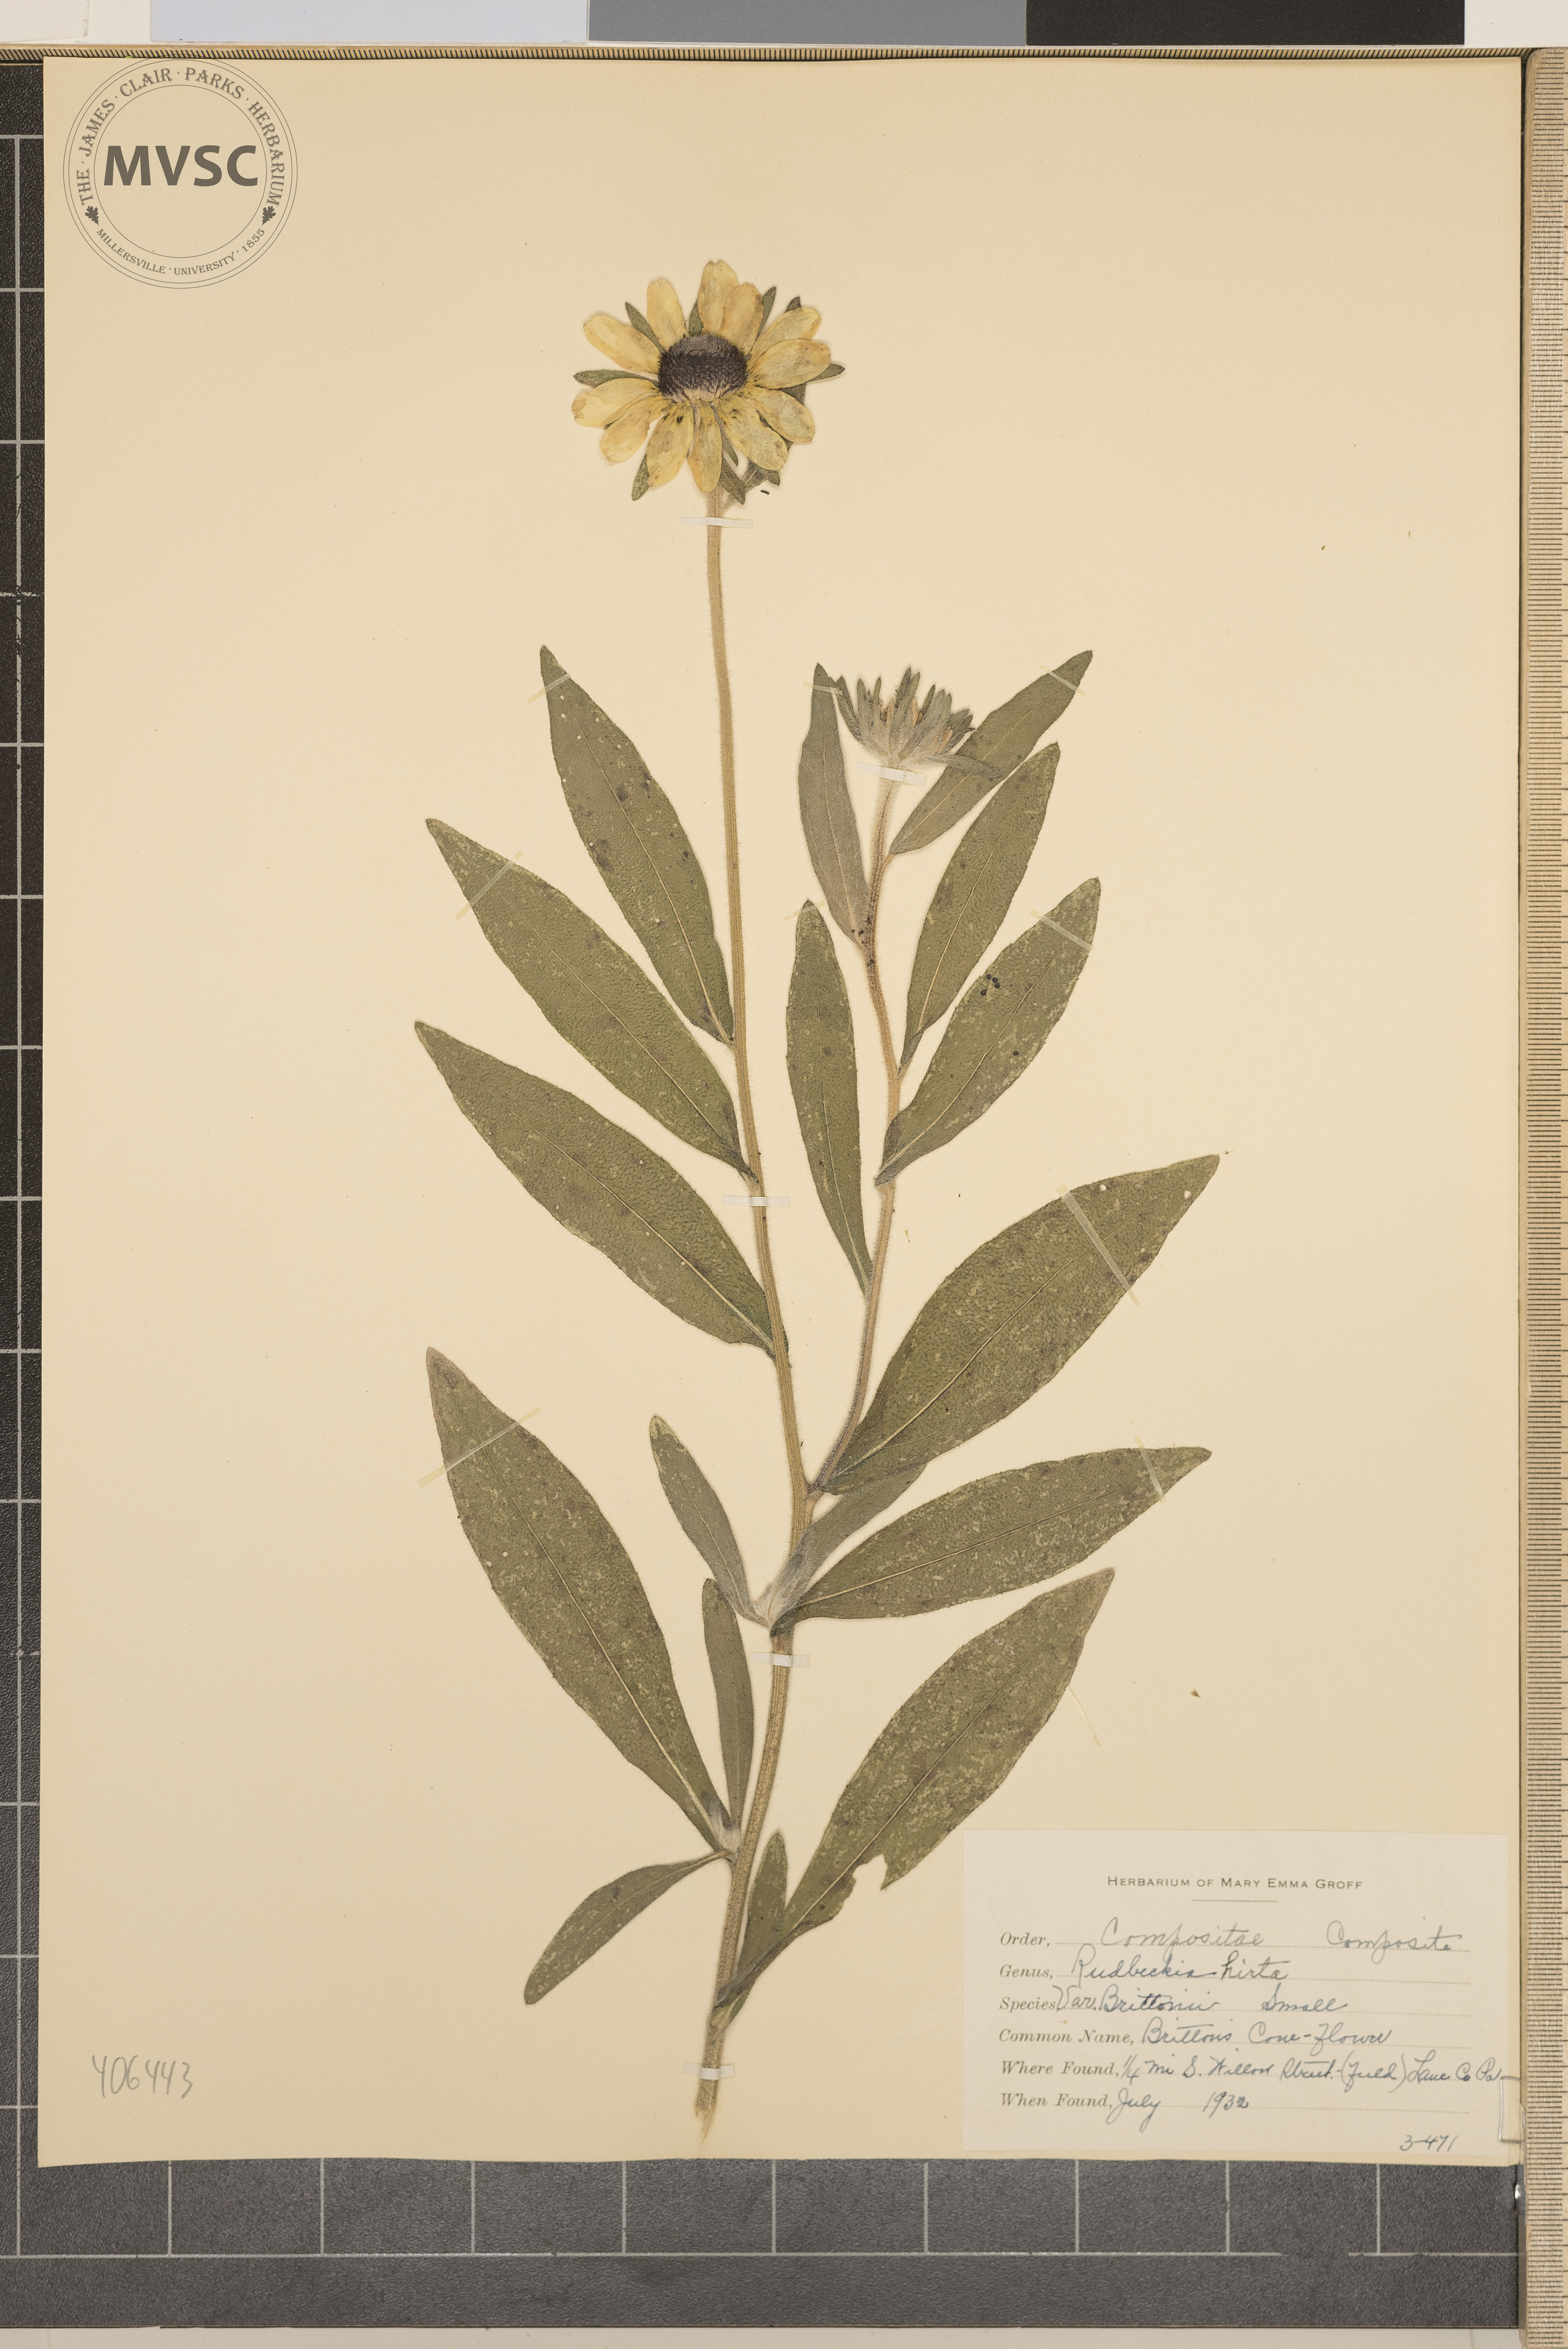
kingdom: Plantae
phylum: Tracheophyta
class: Magnoliopsida
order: Asterales
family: Asteraceae
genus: Rudbeckia
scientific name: Rudbeckia hirta
